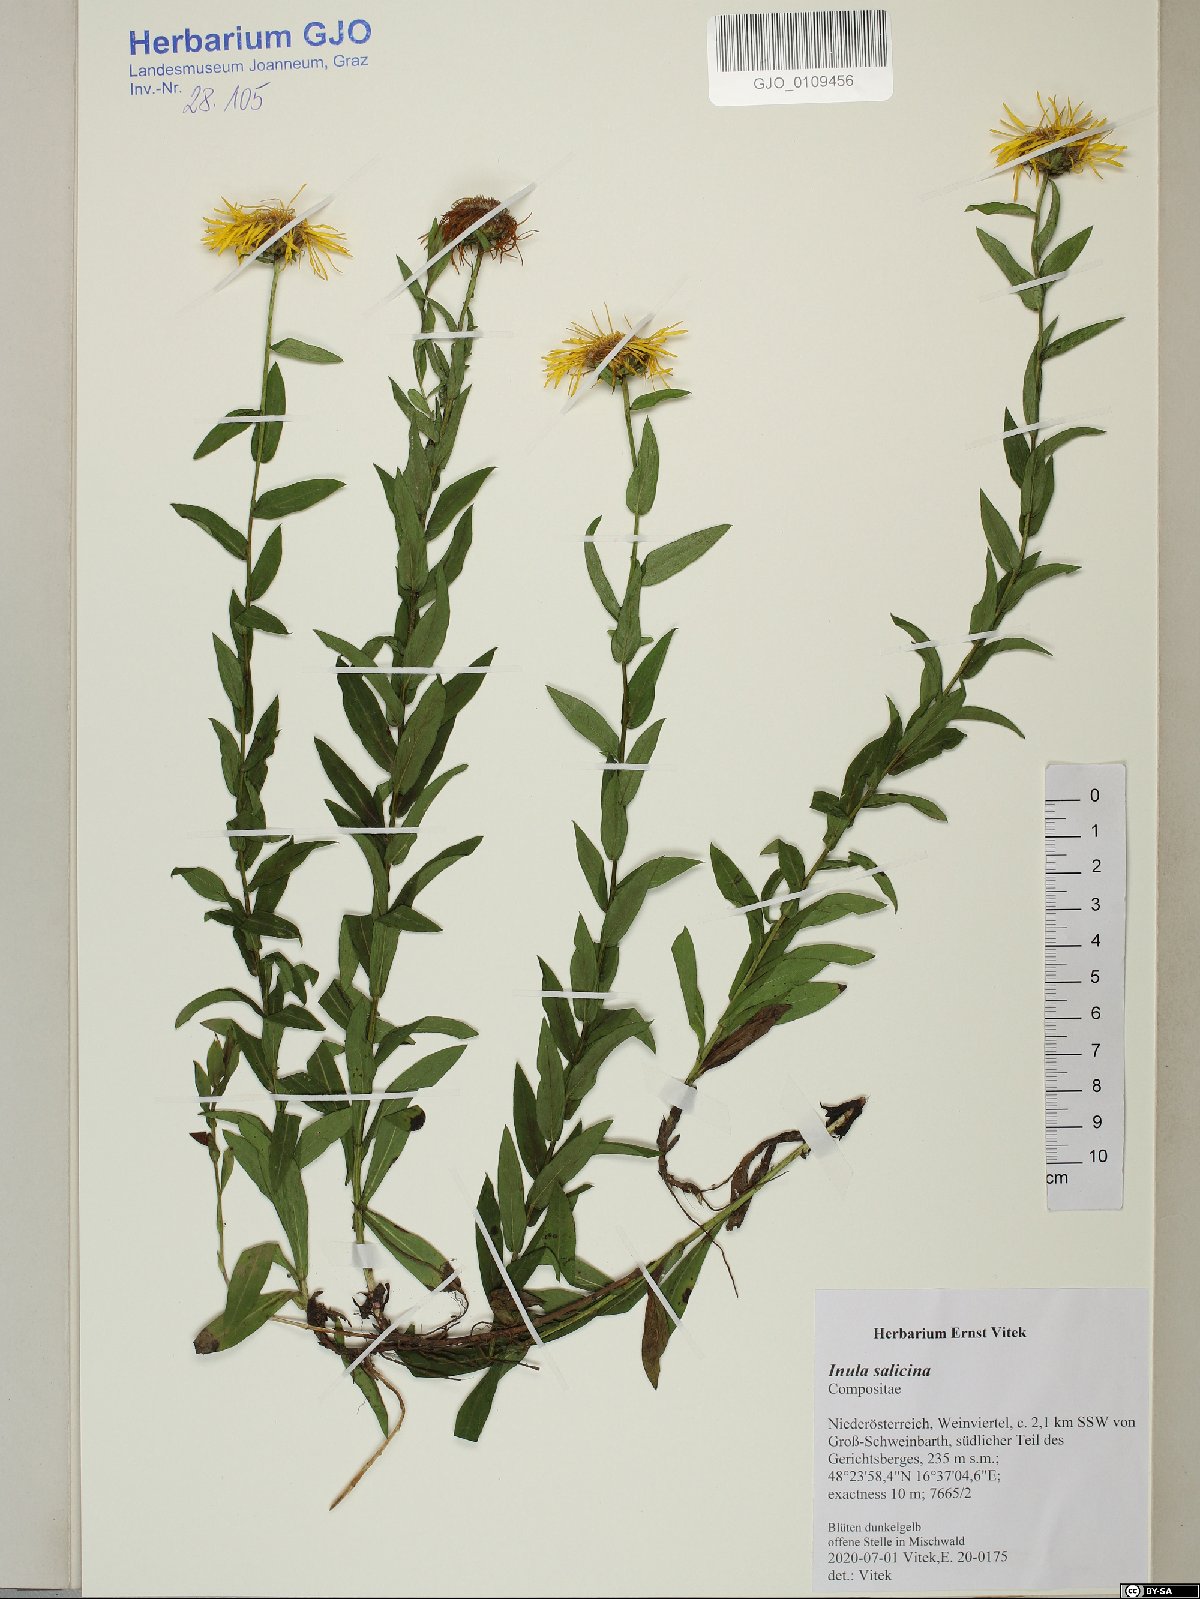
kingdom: Plantae
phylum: Tracheophyta
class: Magnoliopsida
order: Asterales
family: Asteraceae
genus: Pentanema
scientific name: Pentanema salicinum
